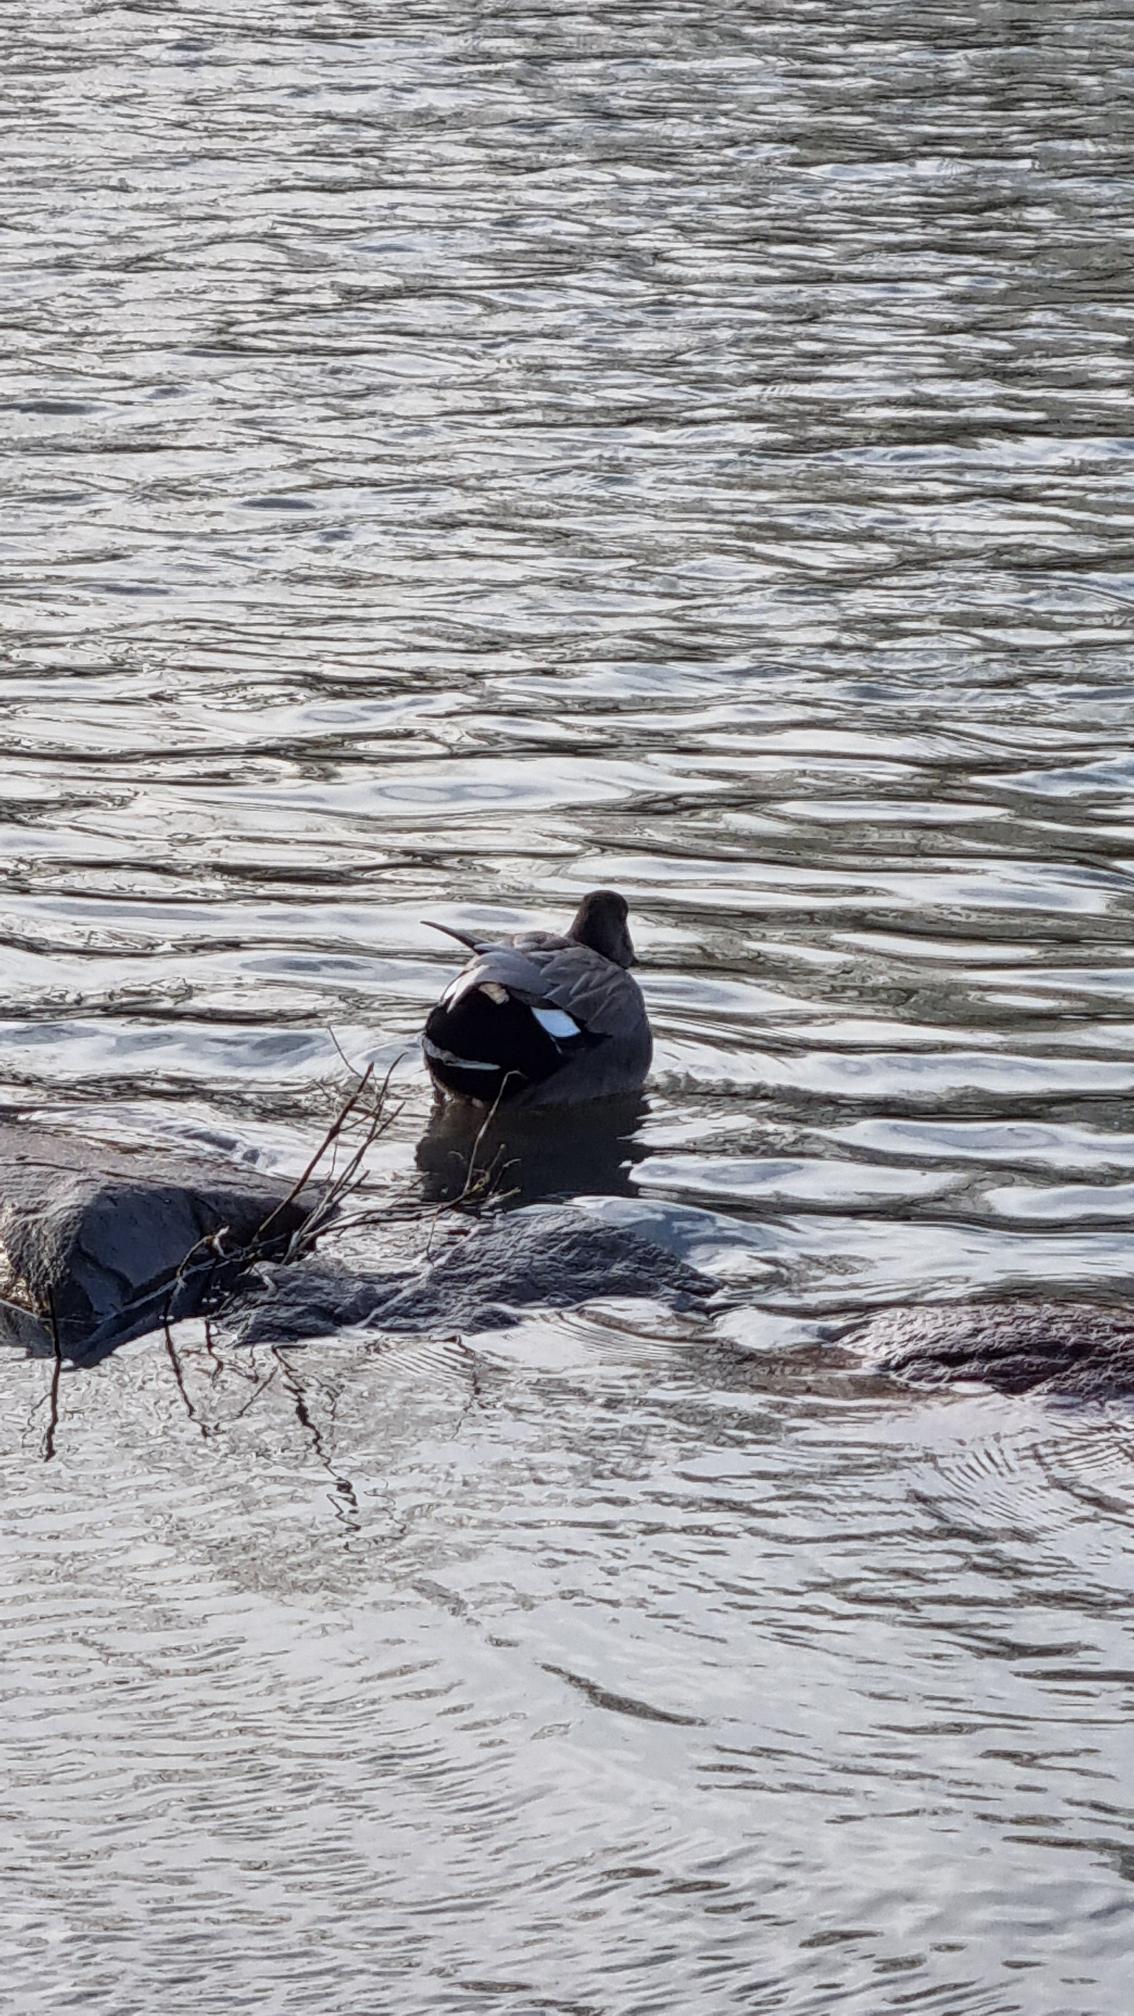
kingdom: Animalia
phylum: Chordata
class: Aves
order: Anseriformes
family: Anatidae
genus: Mareca
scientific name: Mareca strepera
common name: Knarand
